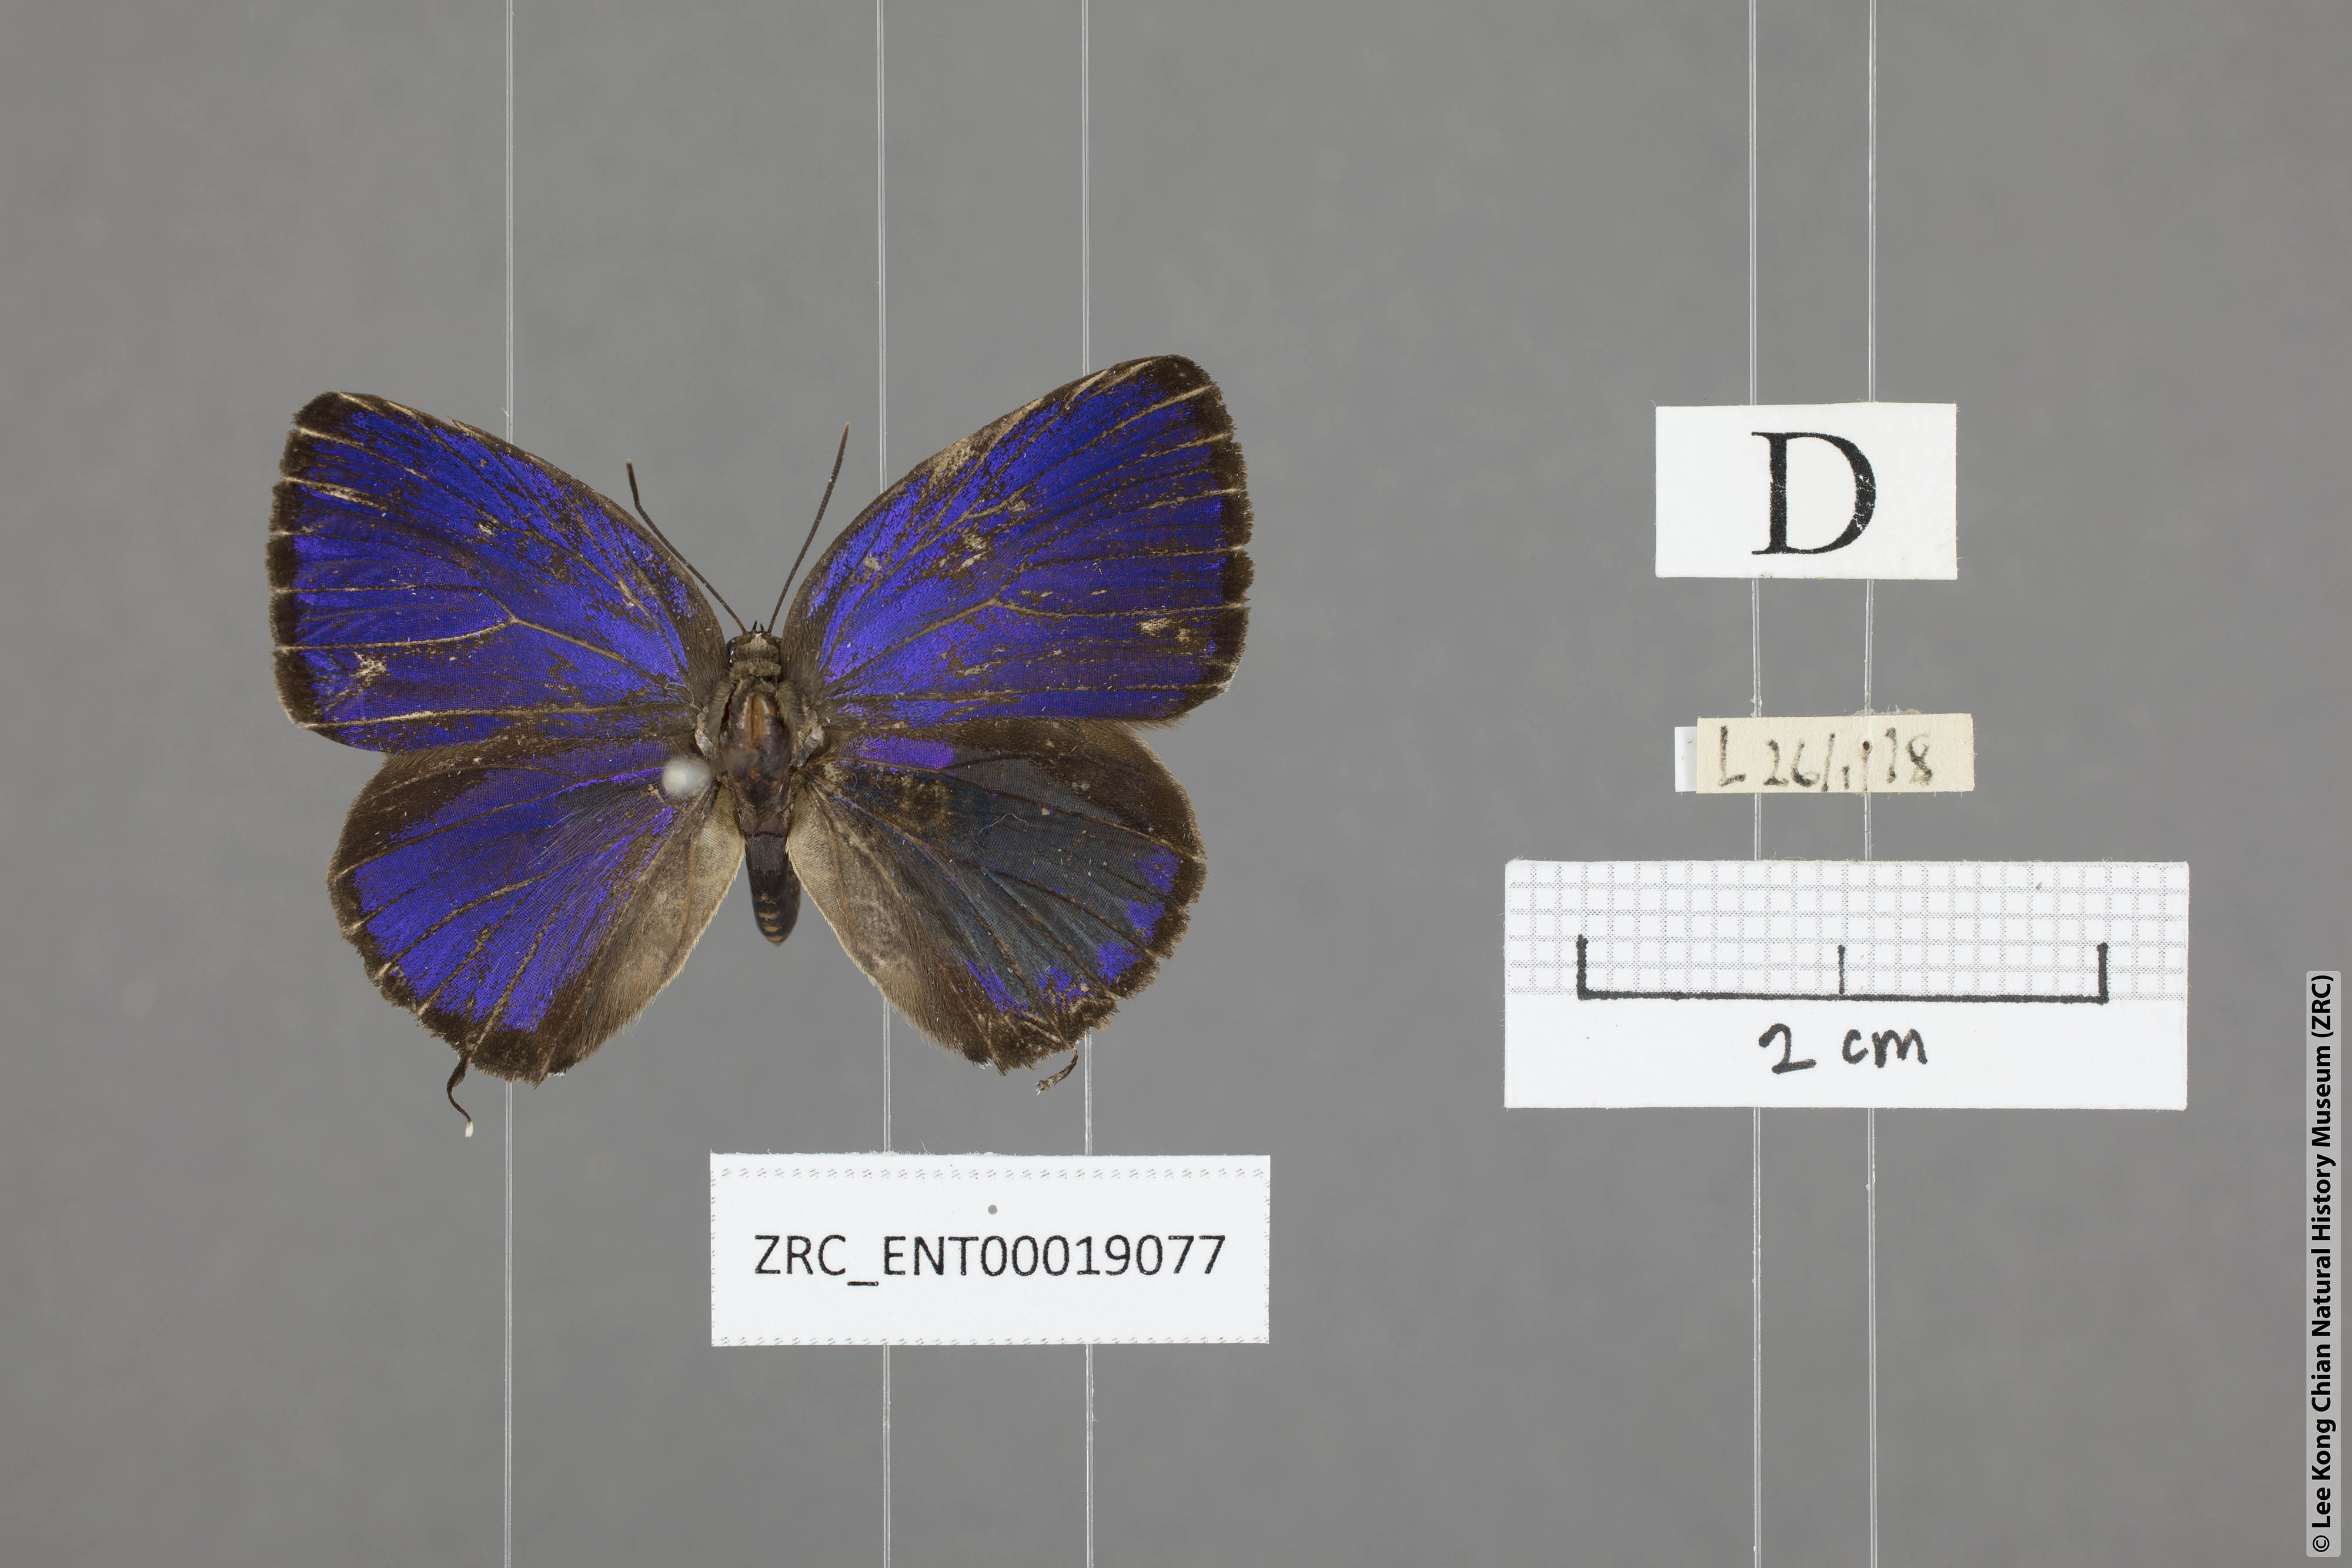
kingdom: Animalia
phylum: Arthropoda
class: Insecta
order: Lepidoptera
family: Lycaenidae
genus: Arhopala
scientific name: Arhopala alitaeus
